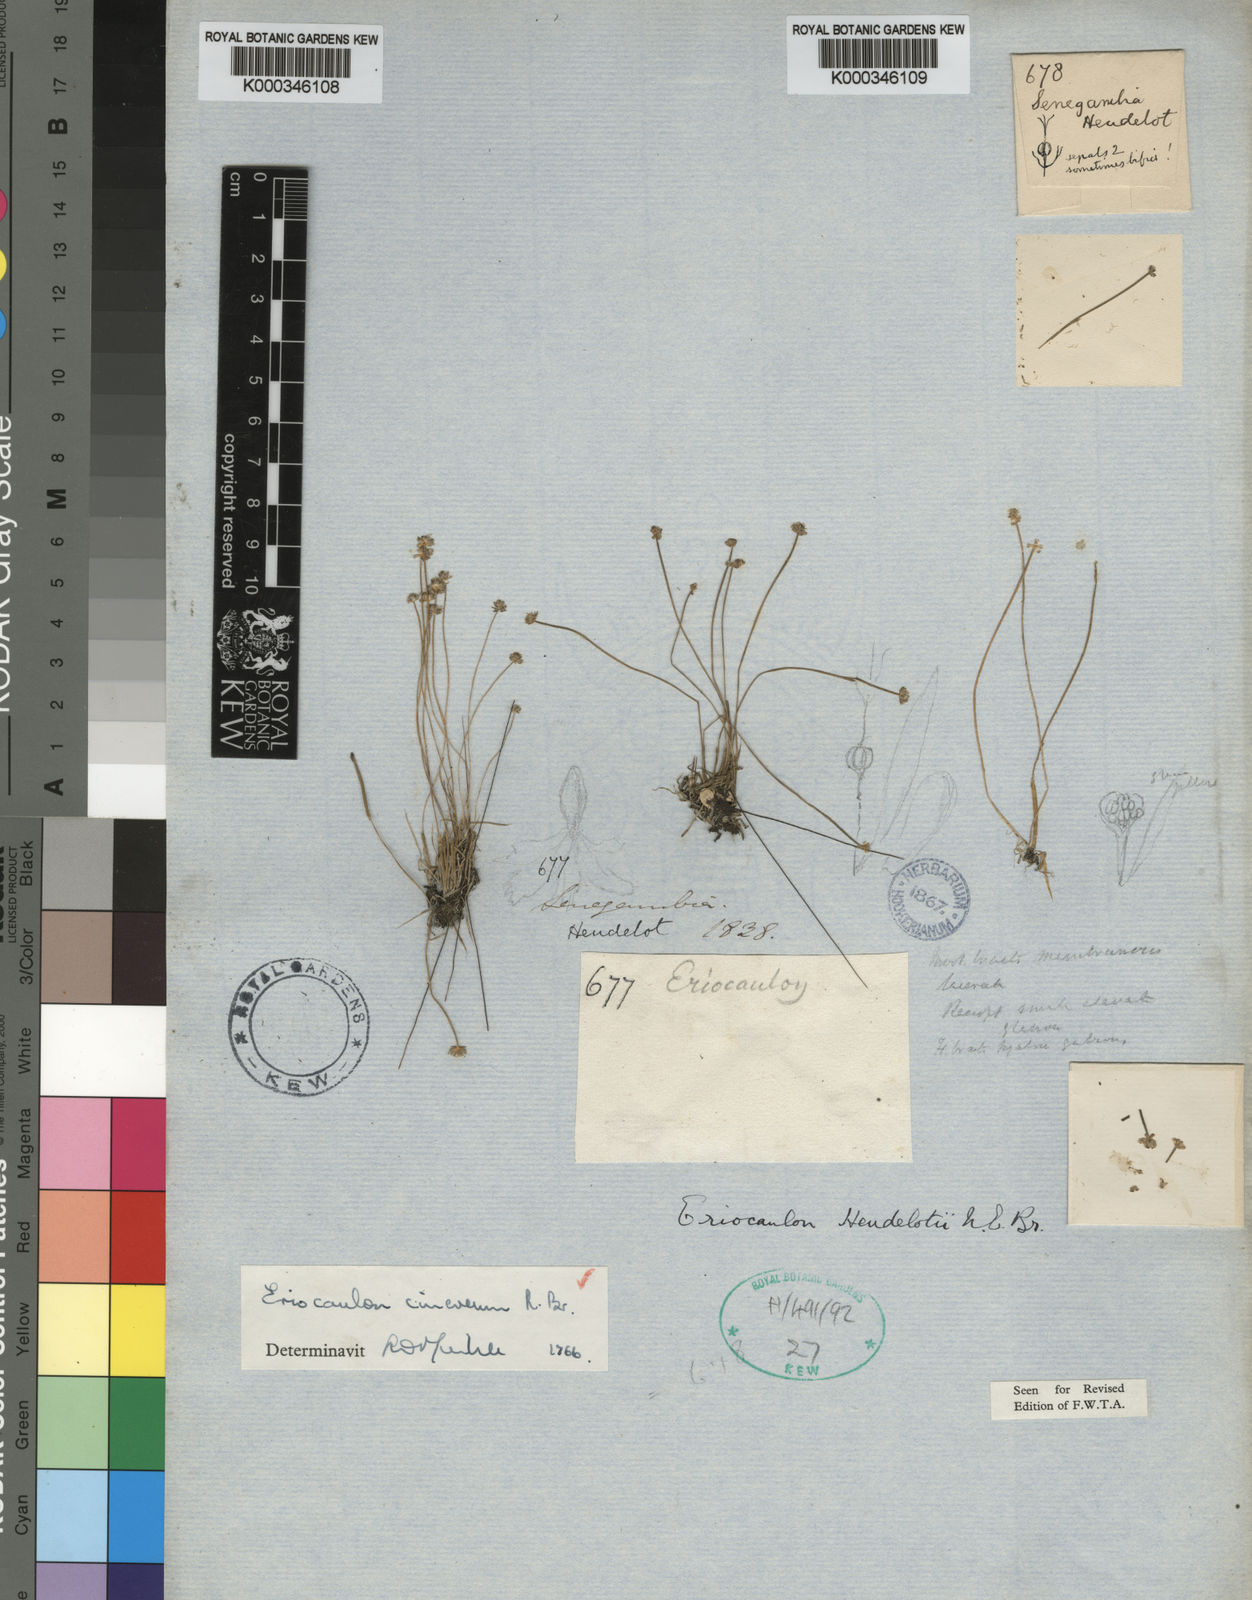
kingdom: Plantae
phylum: Tracheophyta
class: Liliopsida
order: Poales
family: Eriocaulaceae
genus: Eriocaulon
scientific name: Eriocaulon cinereum
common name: Ashy pipewort
